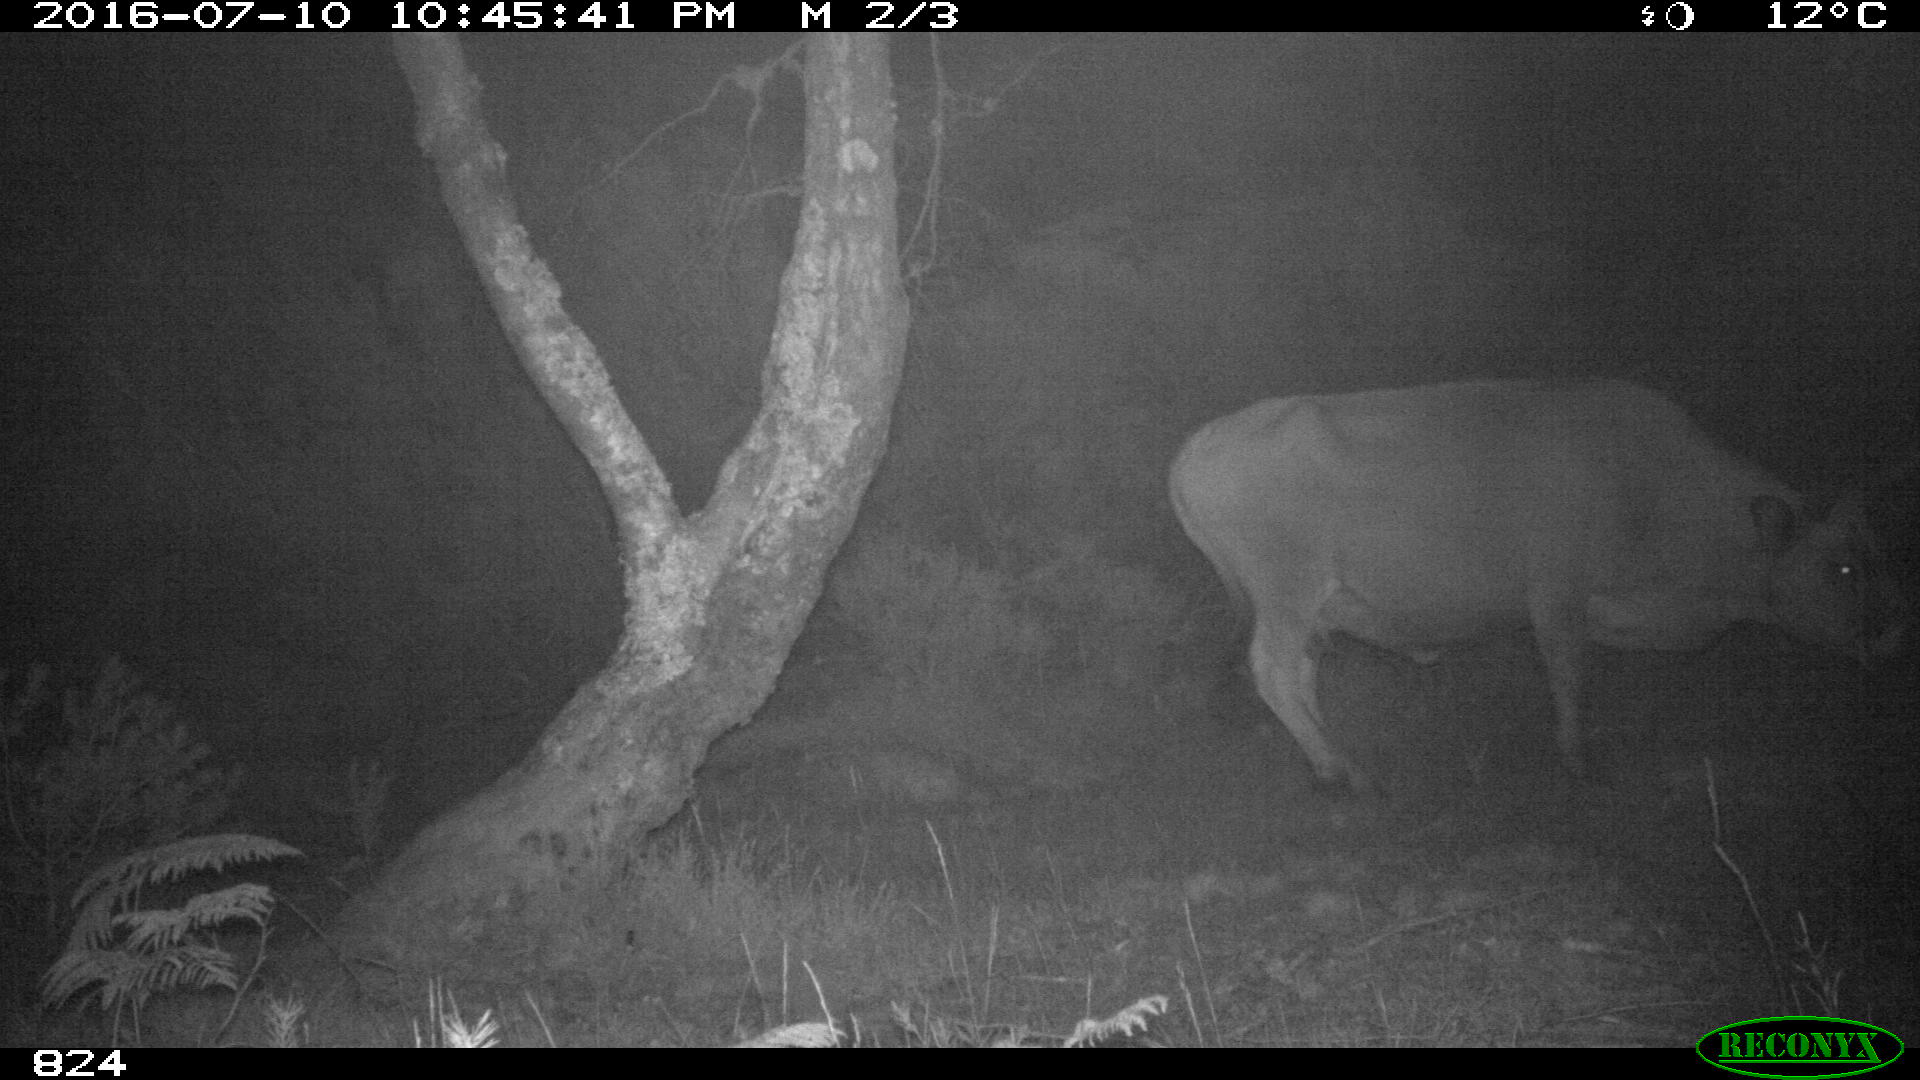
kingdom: Animalia
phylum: Chordata
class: Mammalia
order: Artiodactyla
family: Bovidae
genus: Bos
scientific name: Bos taurus
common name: Domesticated cattle
